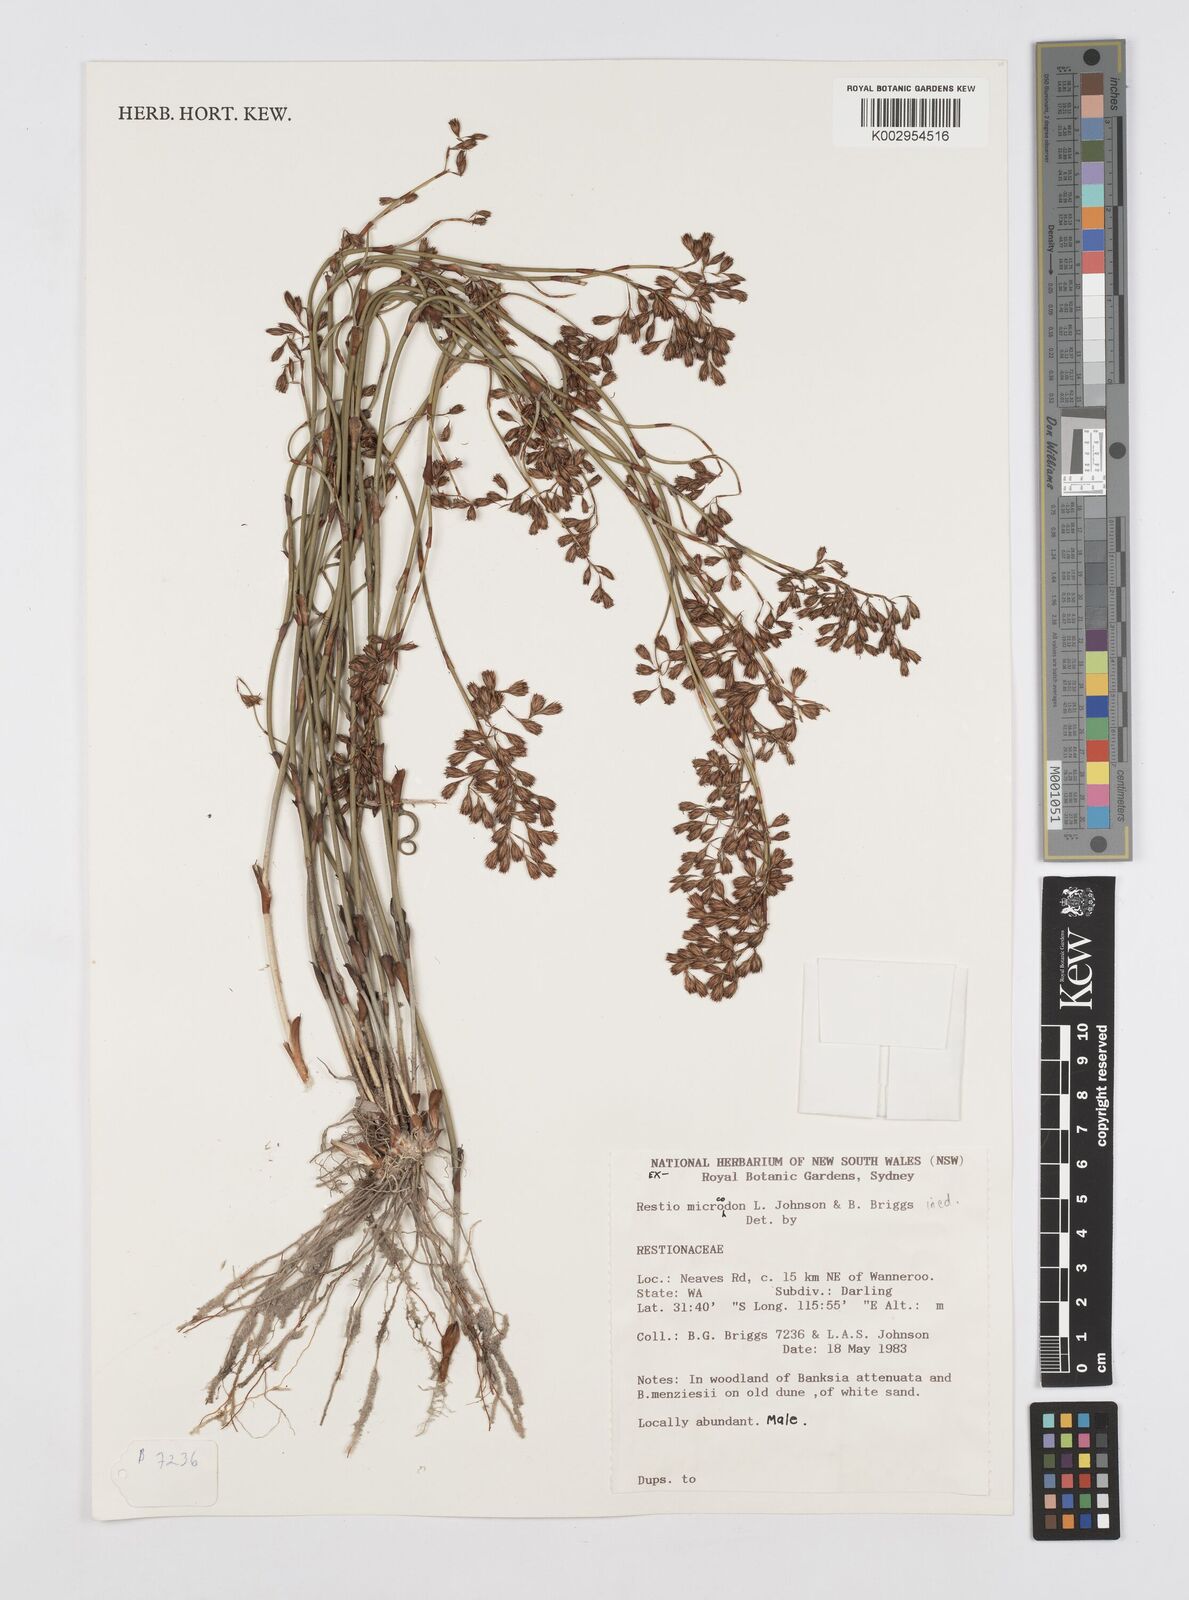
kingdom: Plantae
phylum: Tracheophyta
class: Liliopsida
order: Poales
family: Restionaceae
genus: Chordifex
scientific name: Chordifex microcodon
